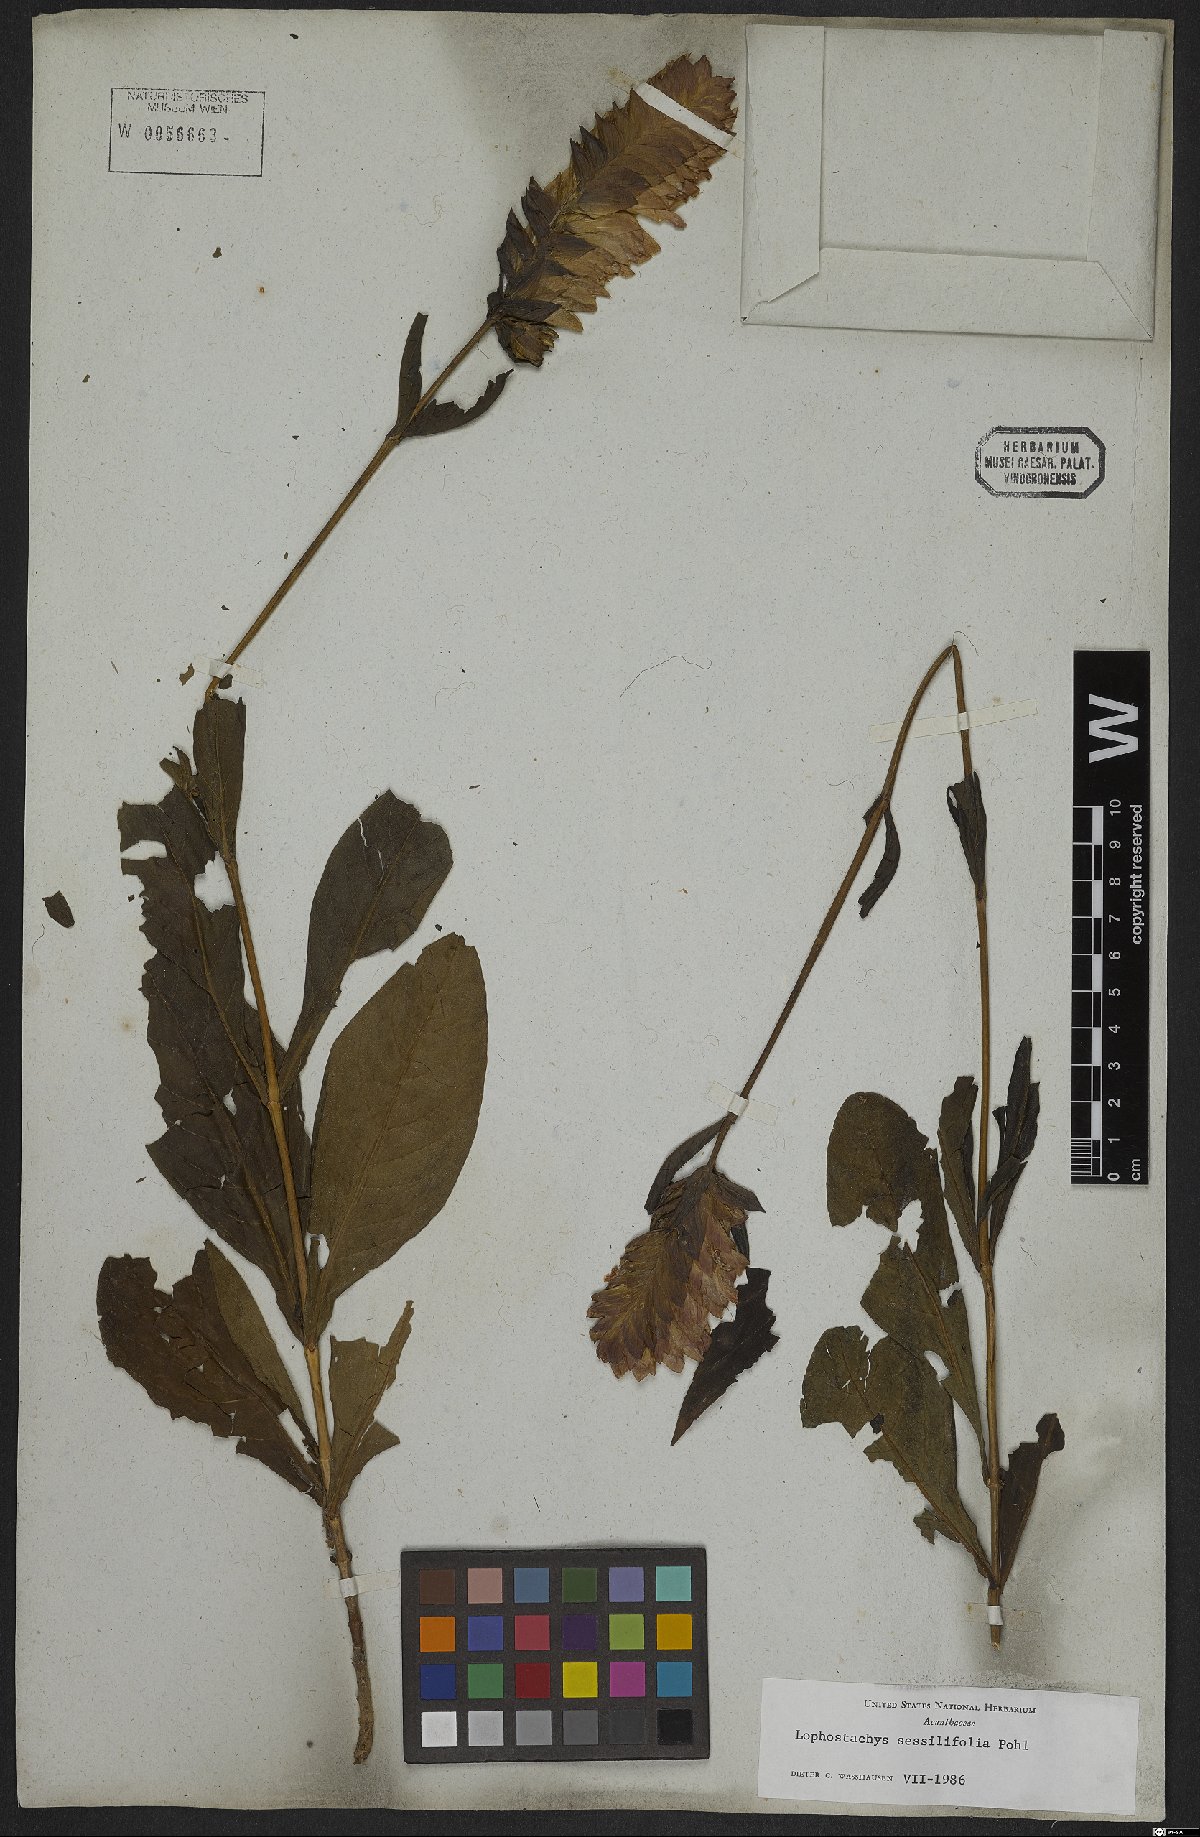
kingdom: Plantae
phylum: Tracheophyta
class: Magnoliopsida
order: Lamiales
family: Acanthaceae
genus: Lepidagathis
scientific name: Lepidagathis sessilifolia
